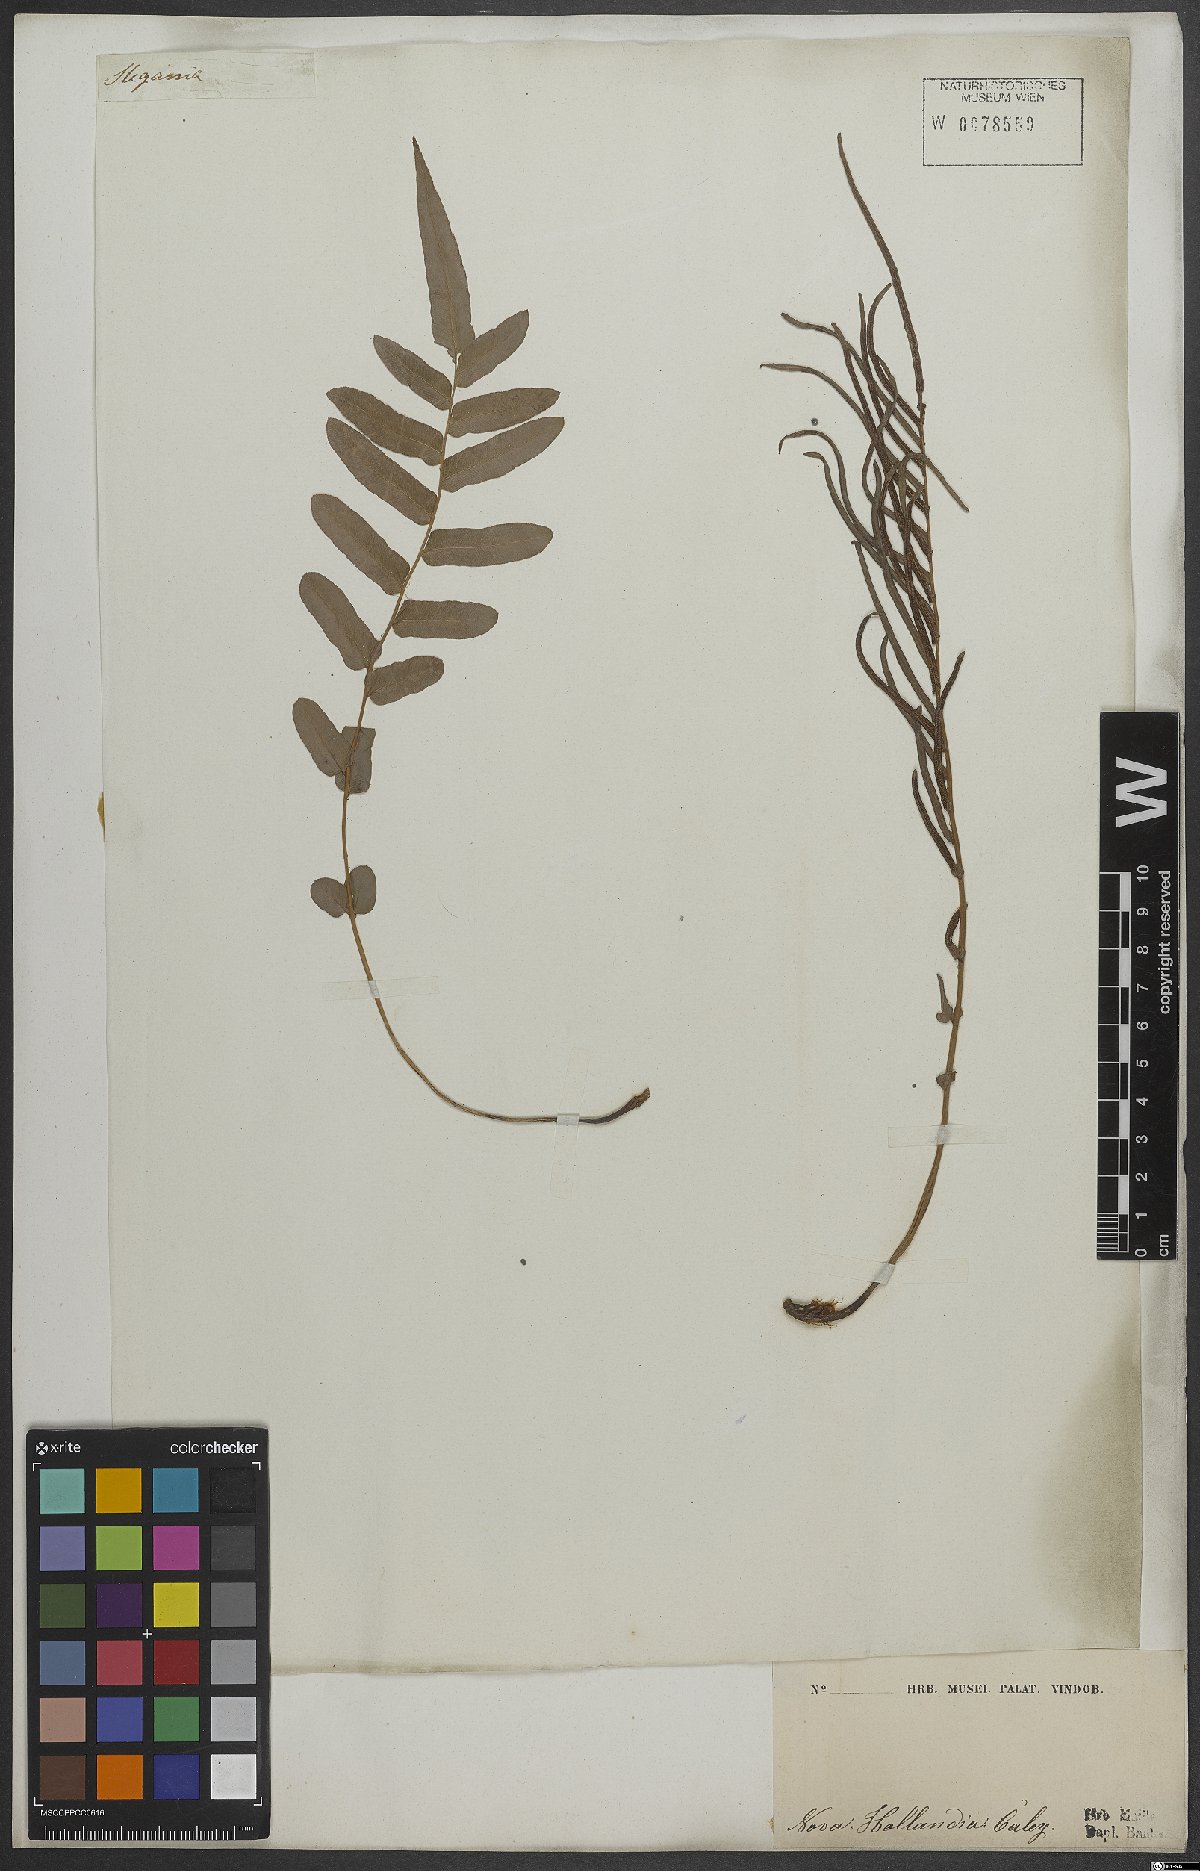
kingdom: Plantae
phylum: Tracheophyta
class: Polypodiopsida
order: Polypodiales
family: Blechnaceae
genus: Blechnum
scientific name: Blechnum
